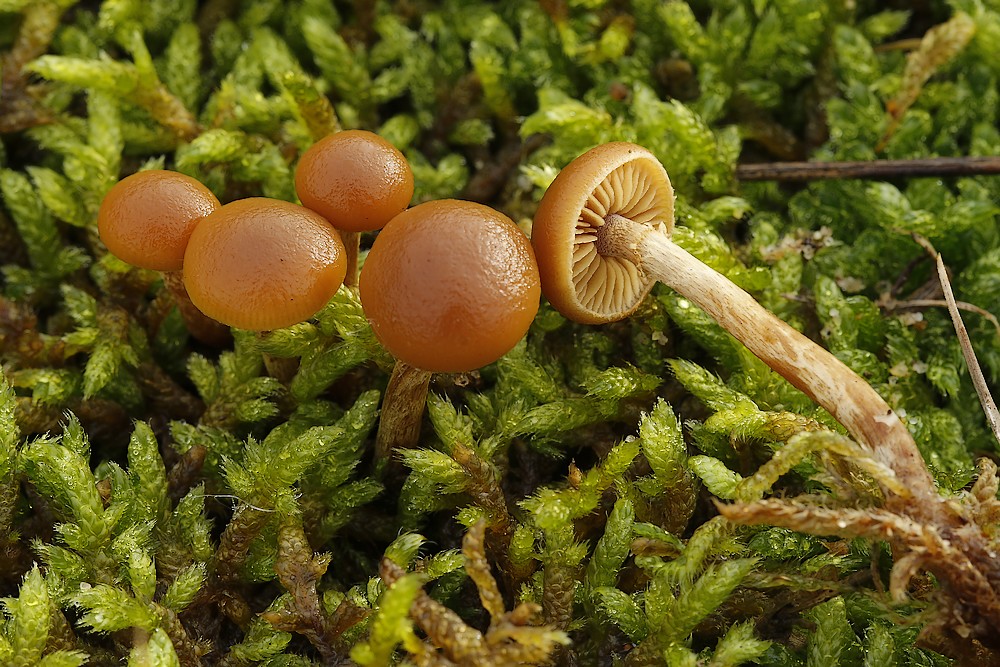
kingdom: Fungi
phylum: Basidiomycota
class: Agaricomycetes
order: Agaricales
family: Hymenogastraceae
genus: Galerina
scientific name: Galerina
